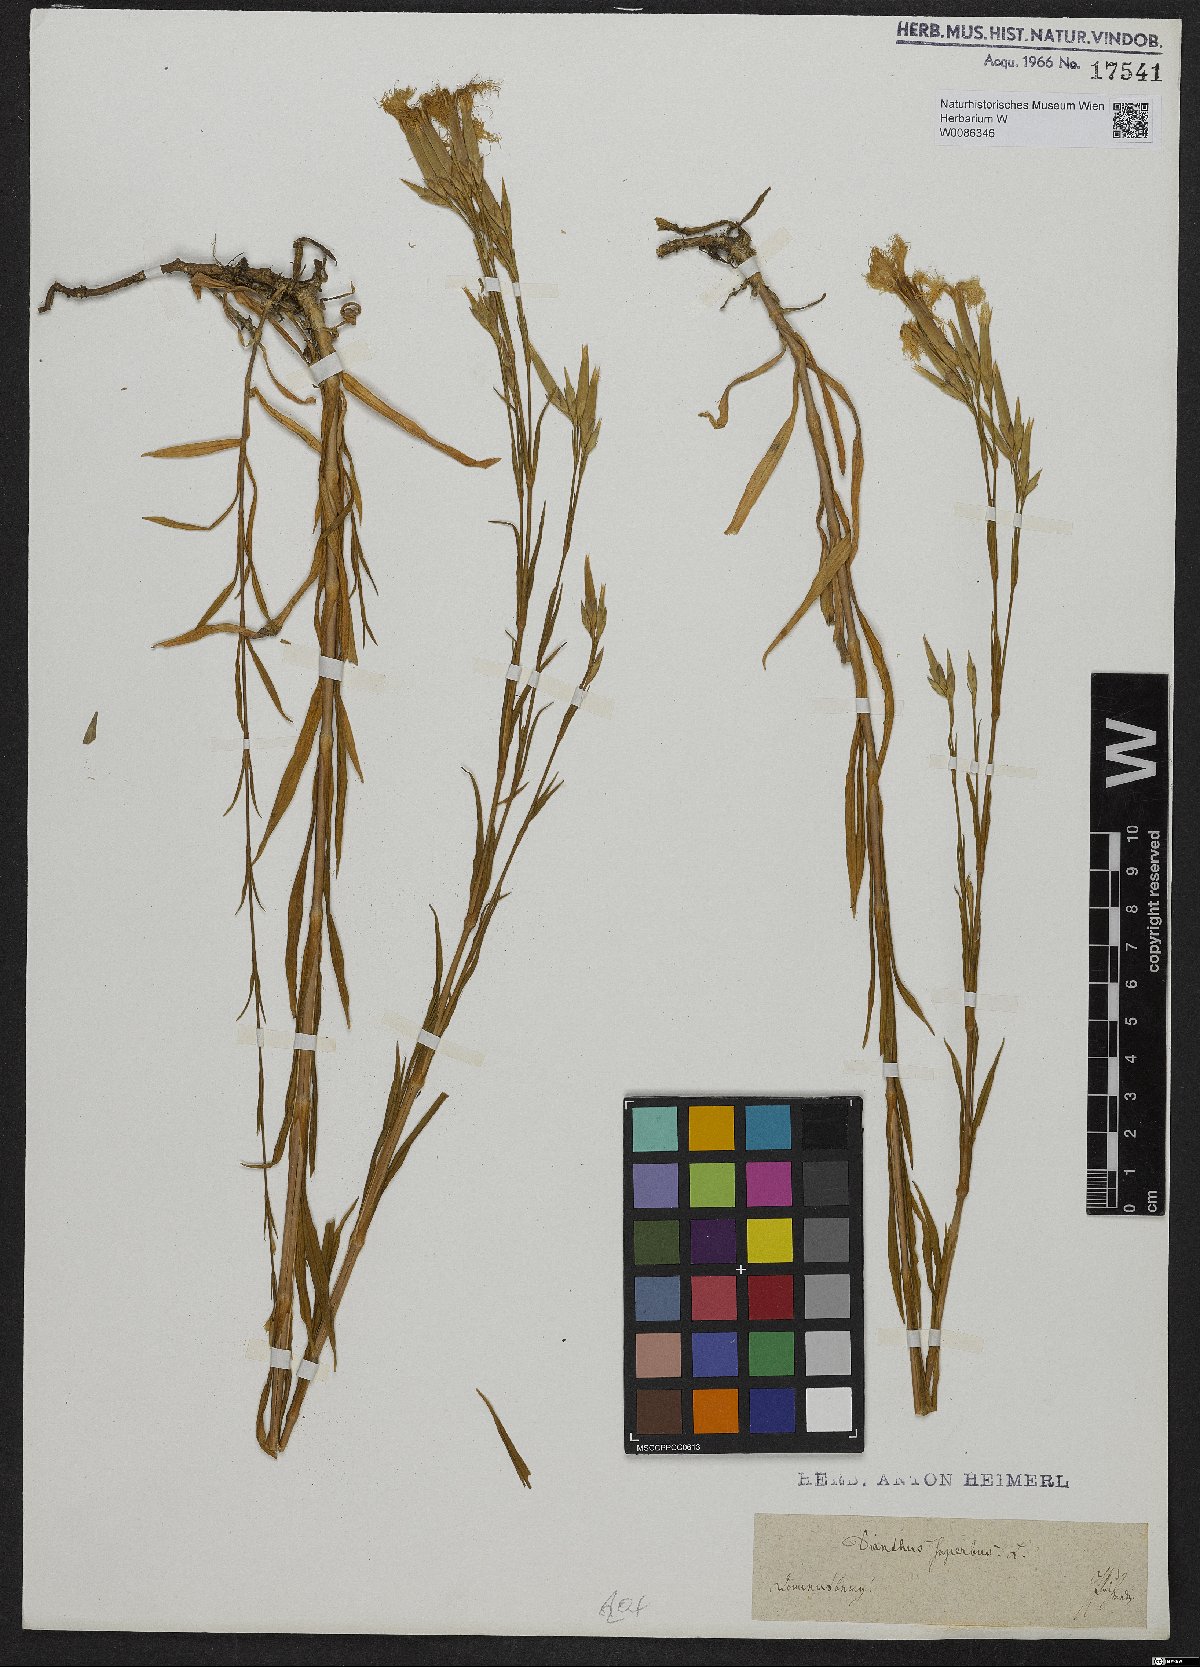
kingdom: Plantae
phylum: Tracheophyta
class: Magnoliopsida
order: Caryophyllales
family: Caryophyllaceae
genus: Dianthus
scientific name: Dianthus superbus
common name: Fringed pink
